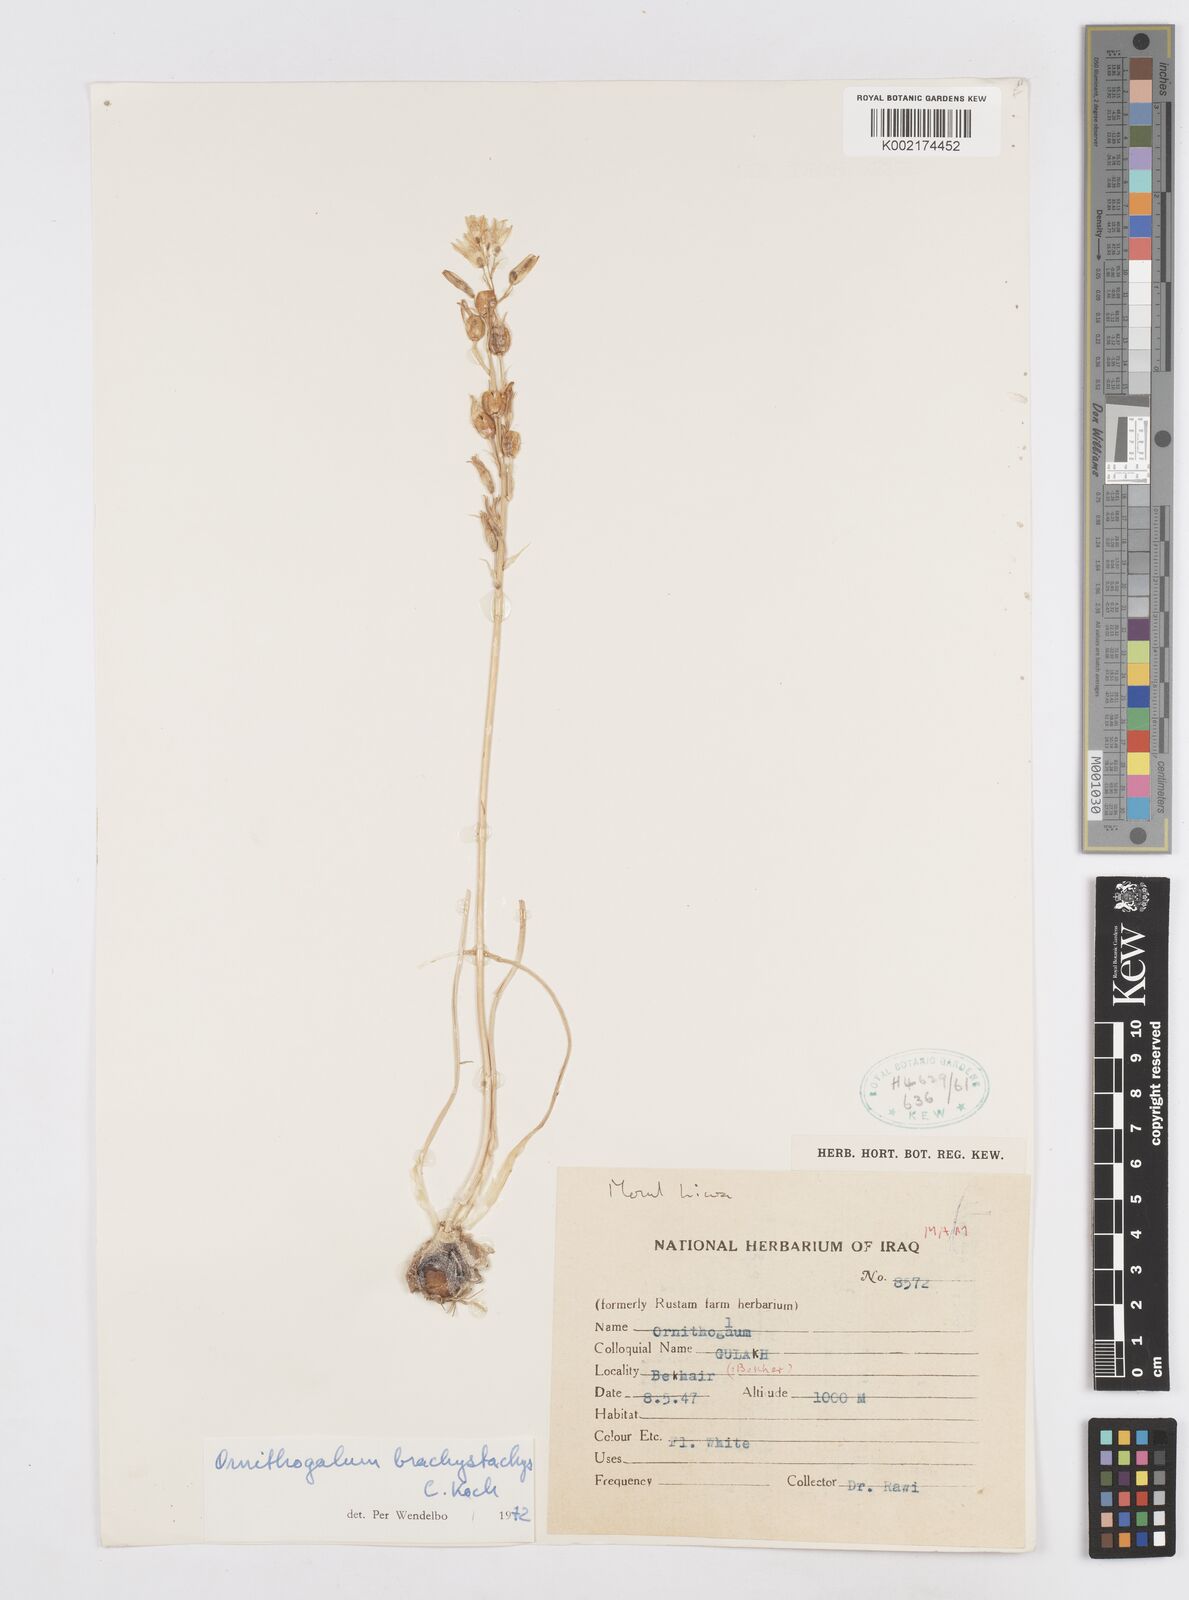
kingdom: Plantae
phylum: Tracheophyta
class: Liliopsida
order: Asparagales
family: Asparagaceae
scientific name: Asparagaceae
